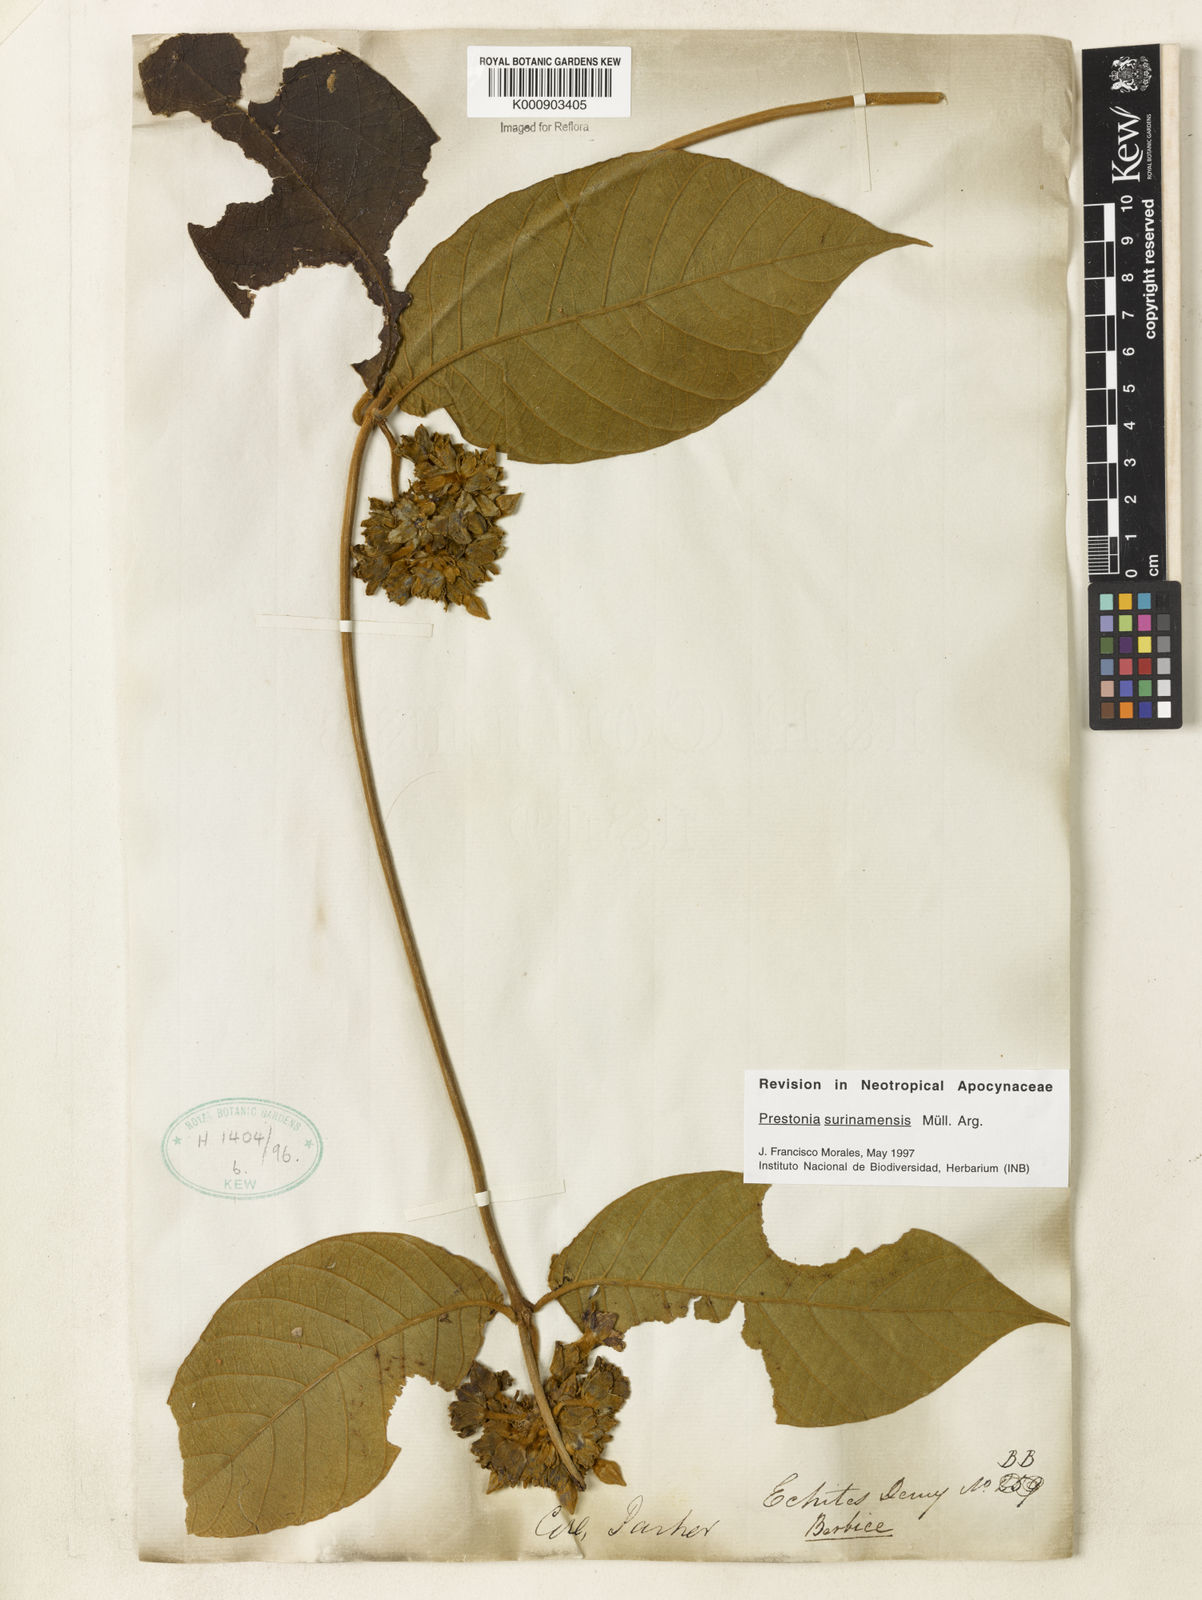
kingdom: Plantae
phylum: Tracheophyta
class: Magnoliopsida
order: Gentianales
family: Apocynaceae
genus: Prestonia
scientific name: Prestonia
